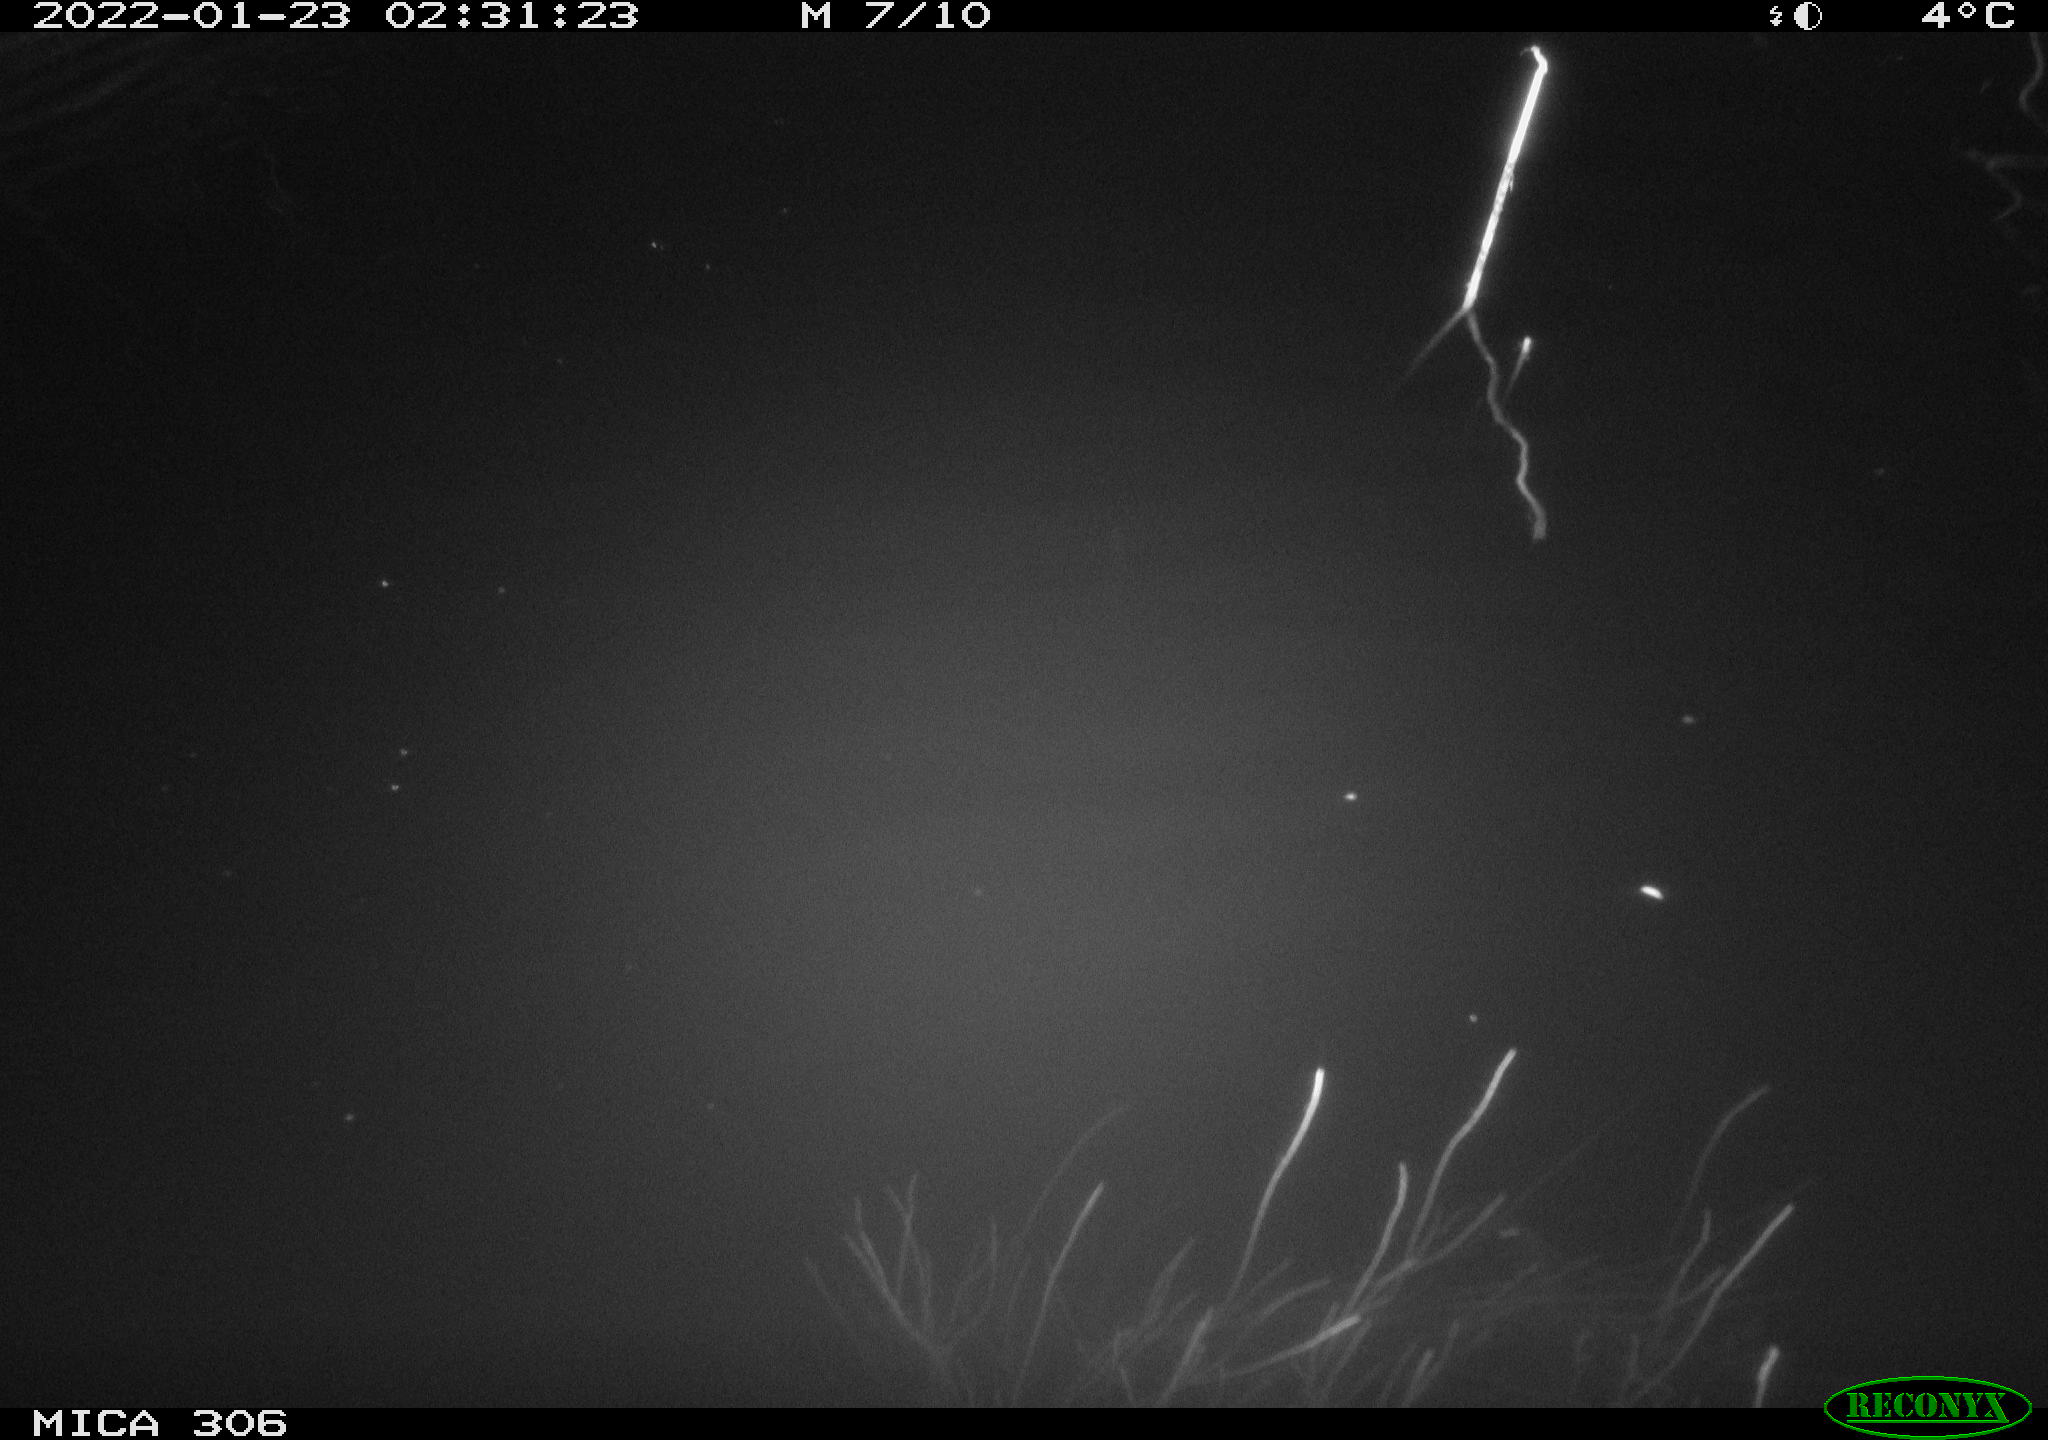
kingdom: Animalia
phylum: Chordata
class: Mammalia
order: Rodentia
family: Cricetidae
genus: Ondatra
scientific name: Ondatra zibethicus
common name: Muskrat
